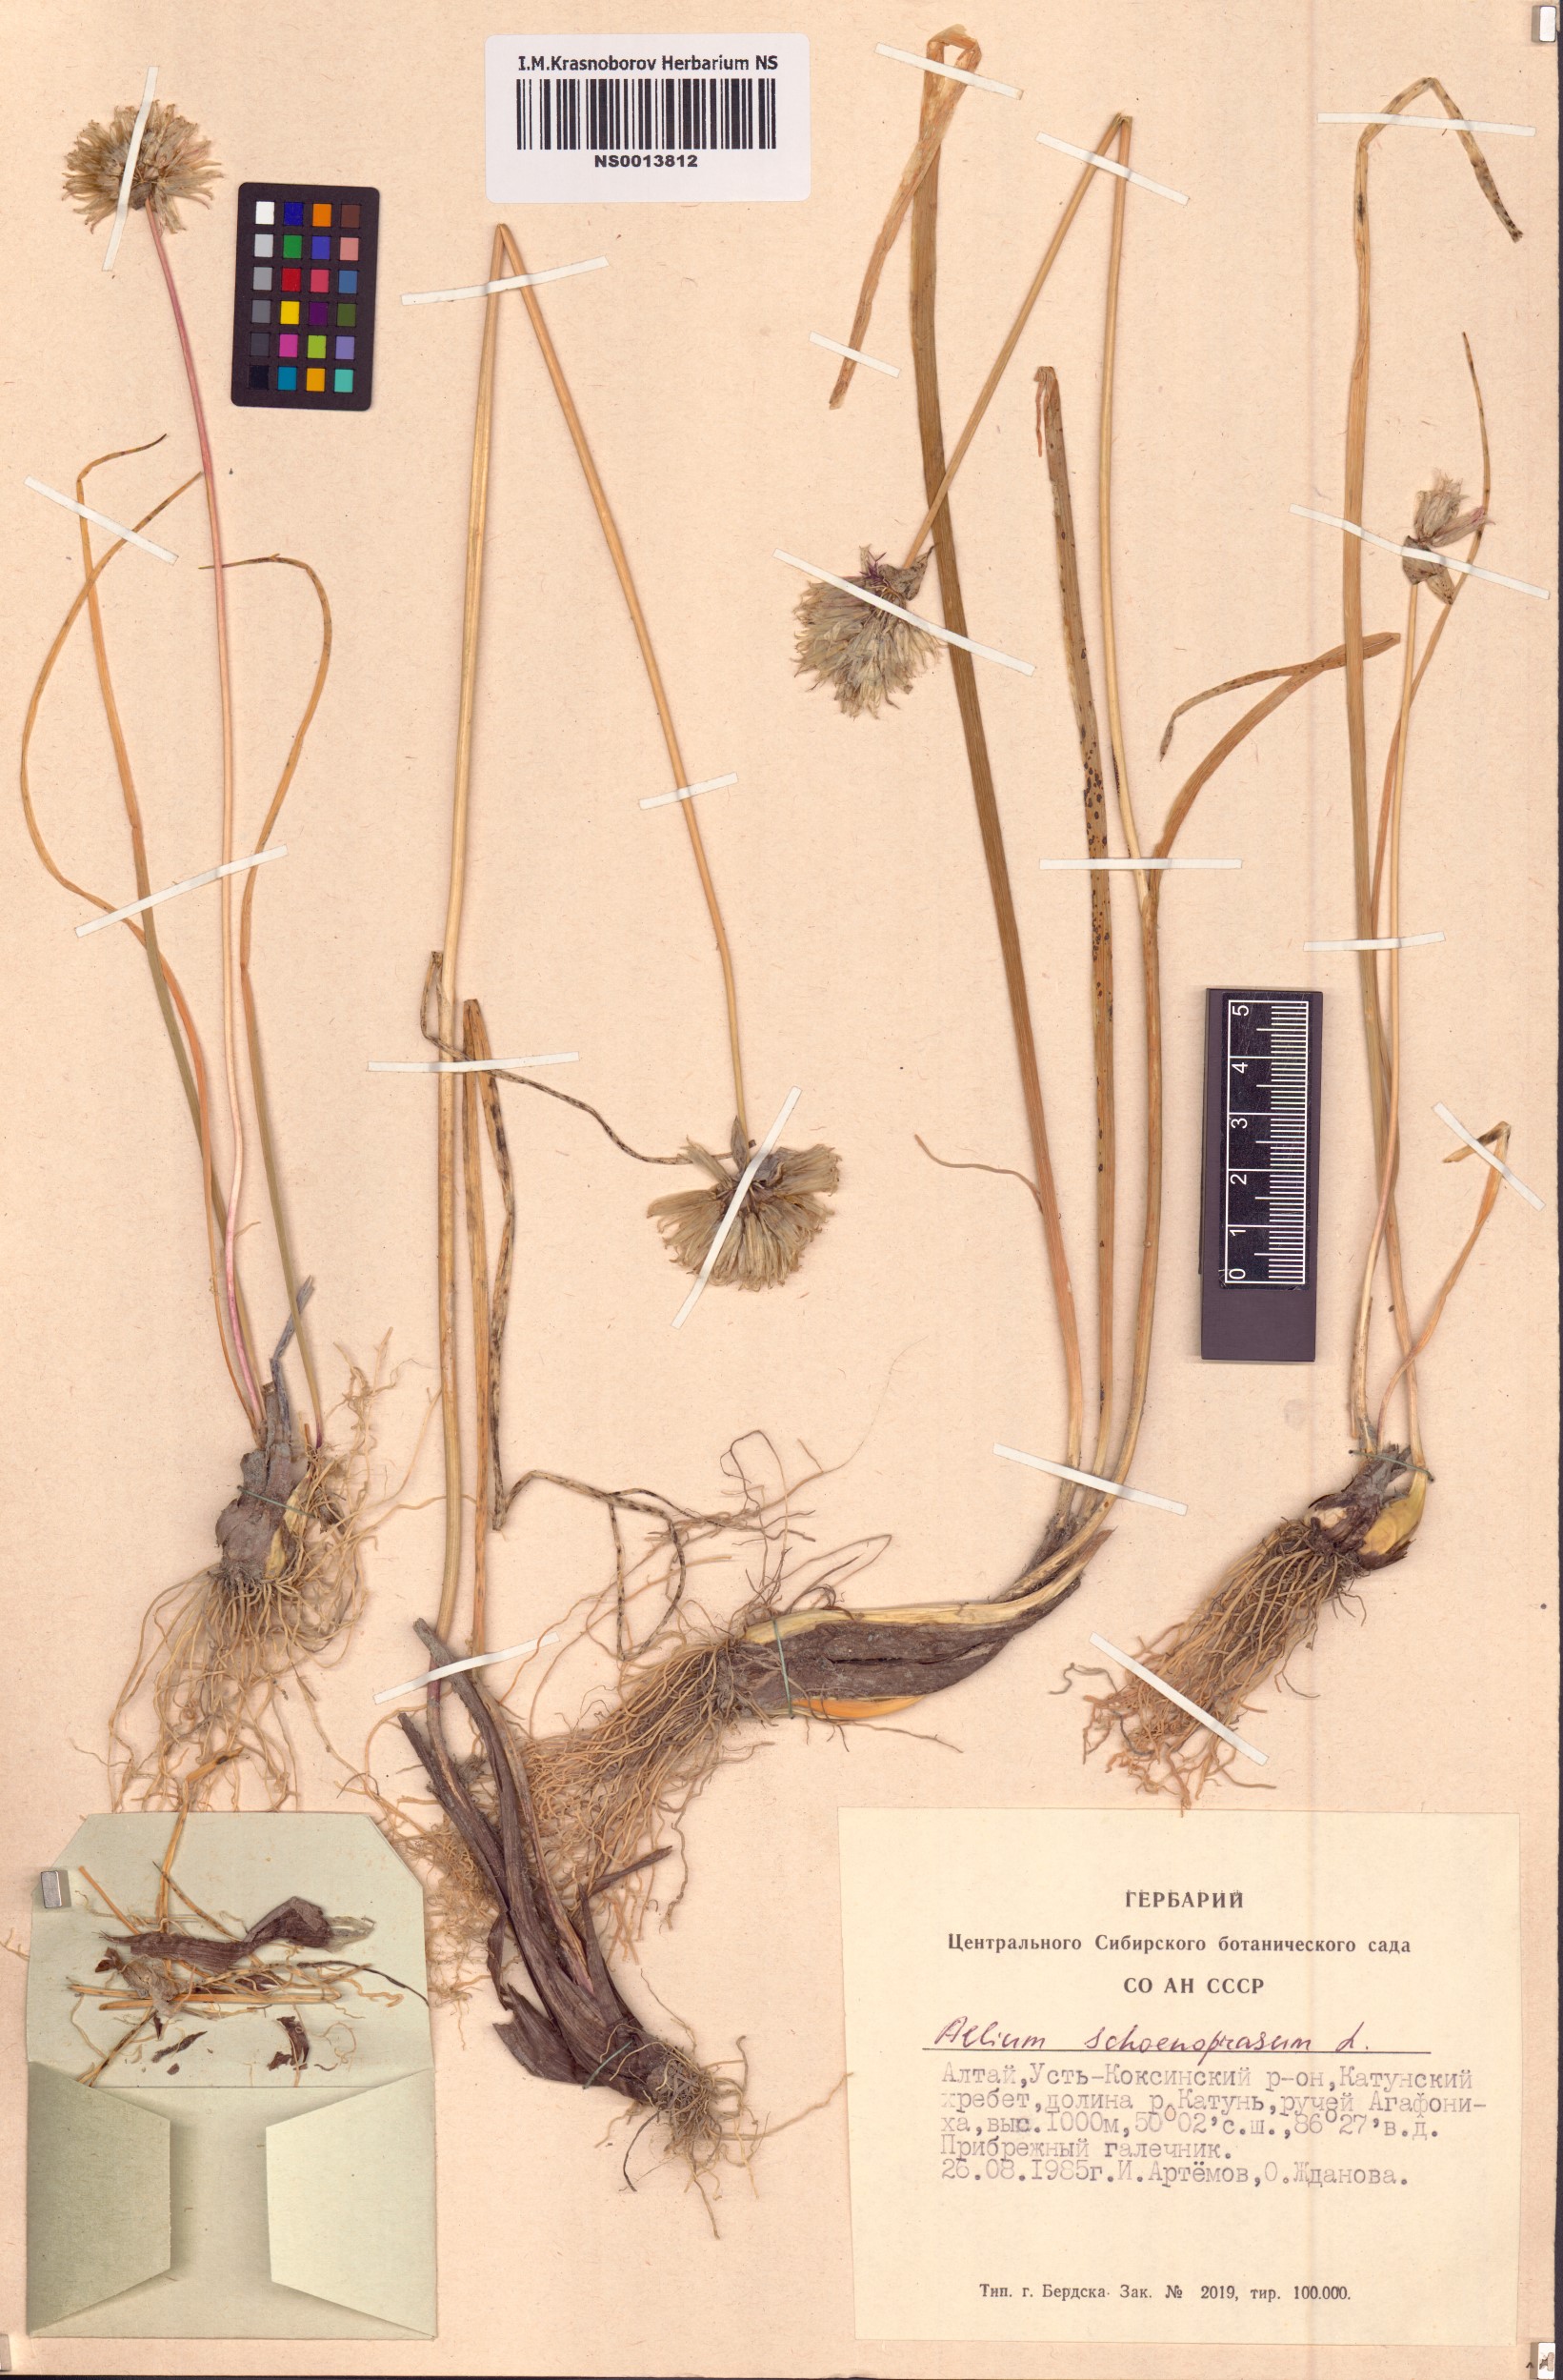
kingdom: Plantae
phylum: Tracheophyta
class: Liliopsida
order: Asparagales
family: Amaryllidaceae
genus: Allium
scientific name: Allium schoenoprasum
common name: Chives
